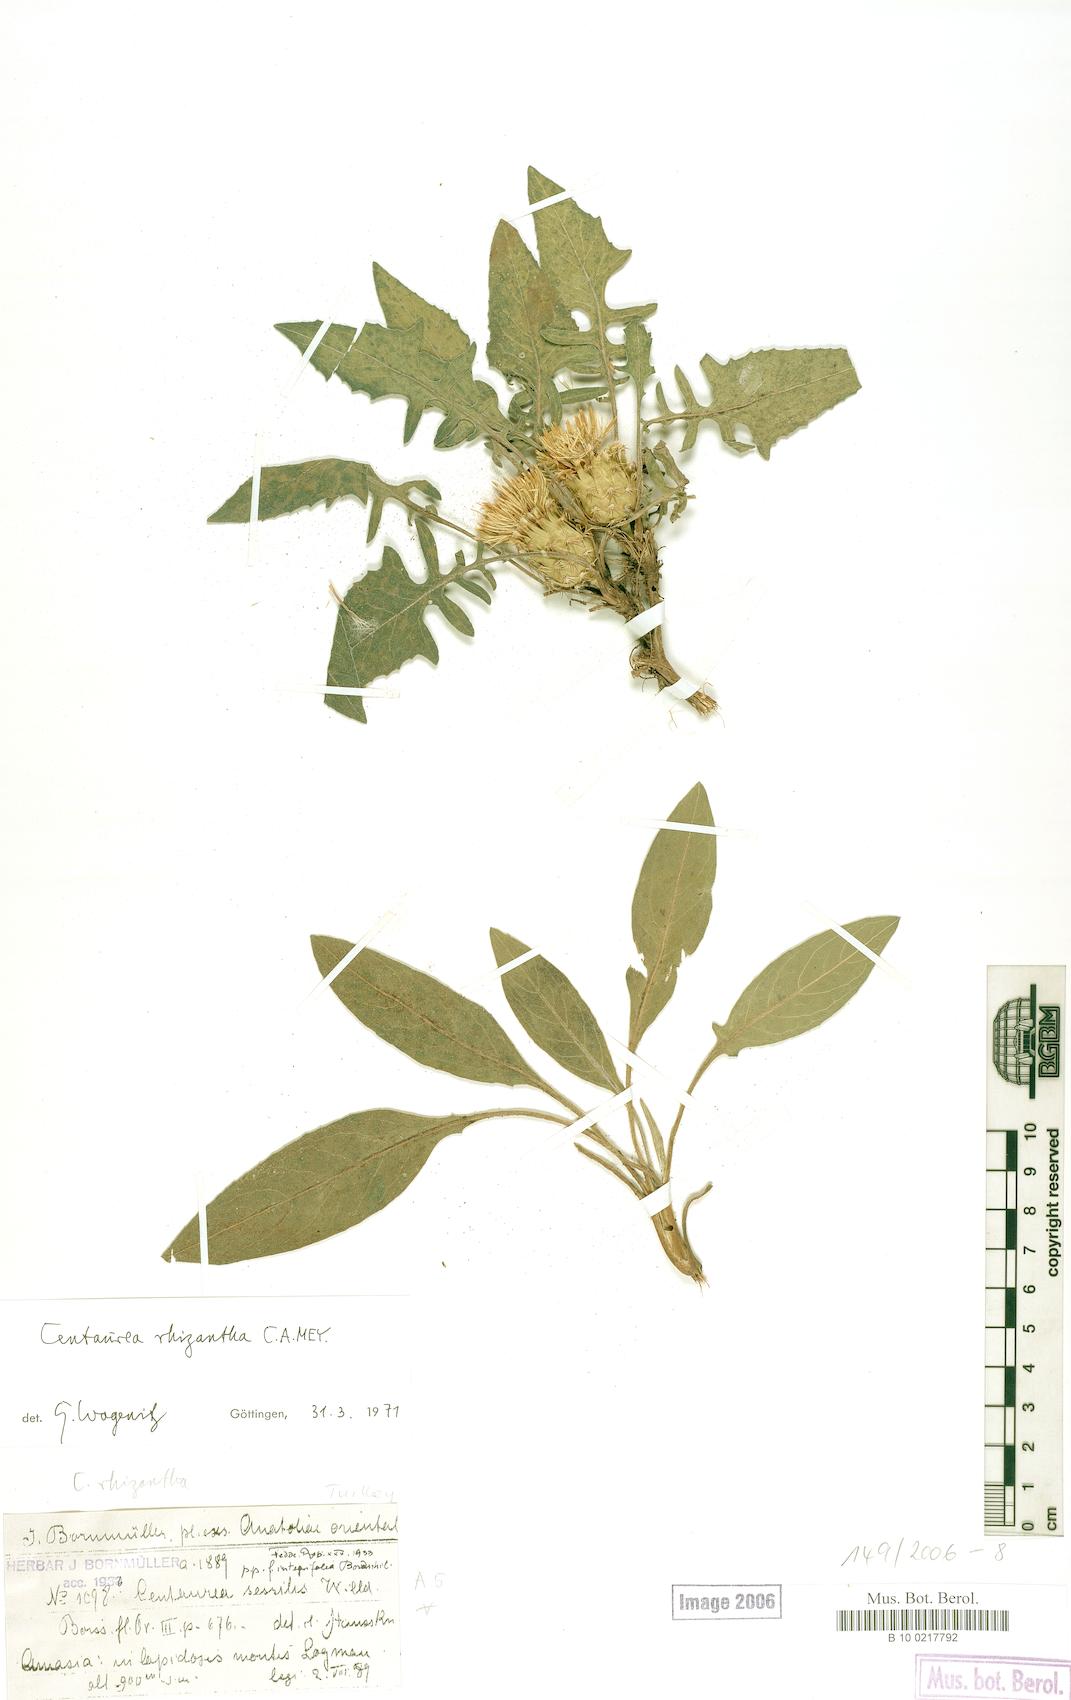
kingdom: Plantae
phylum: Tracheophyta
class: Magnoliopsida
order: Asterales
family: Asteraceae
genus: Centaurea
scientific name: Centaurea rhizantha
